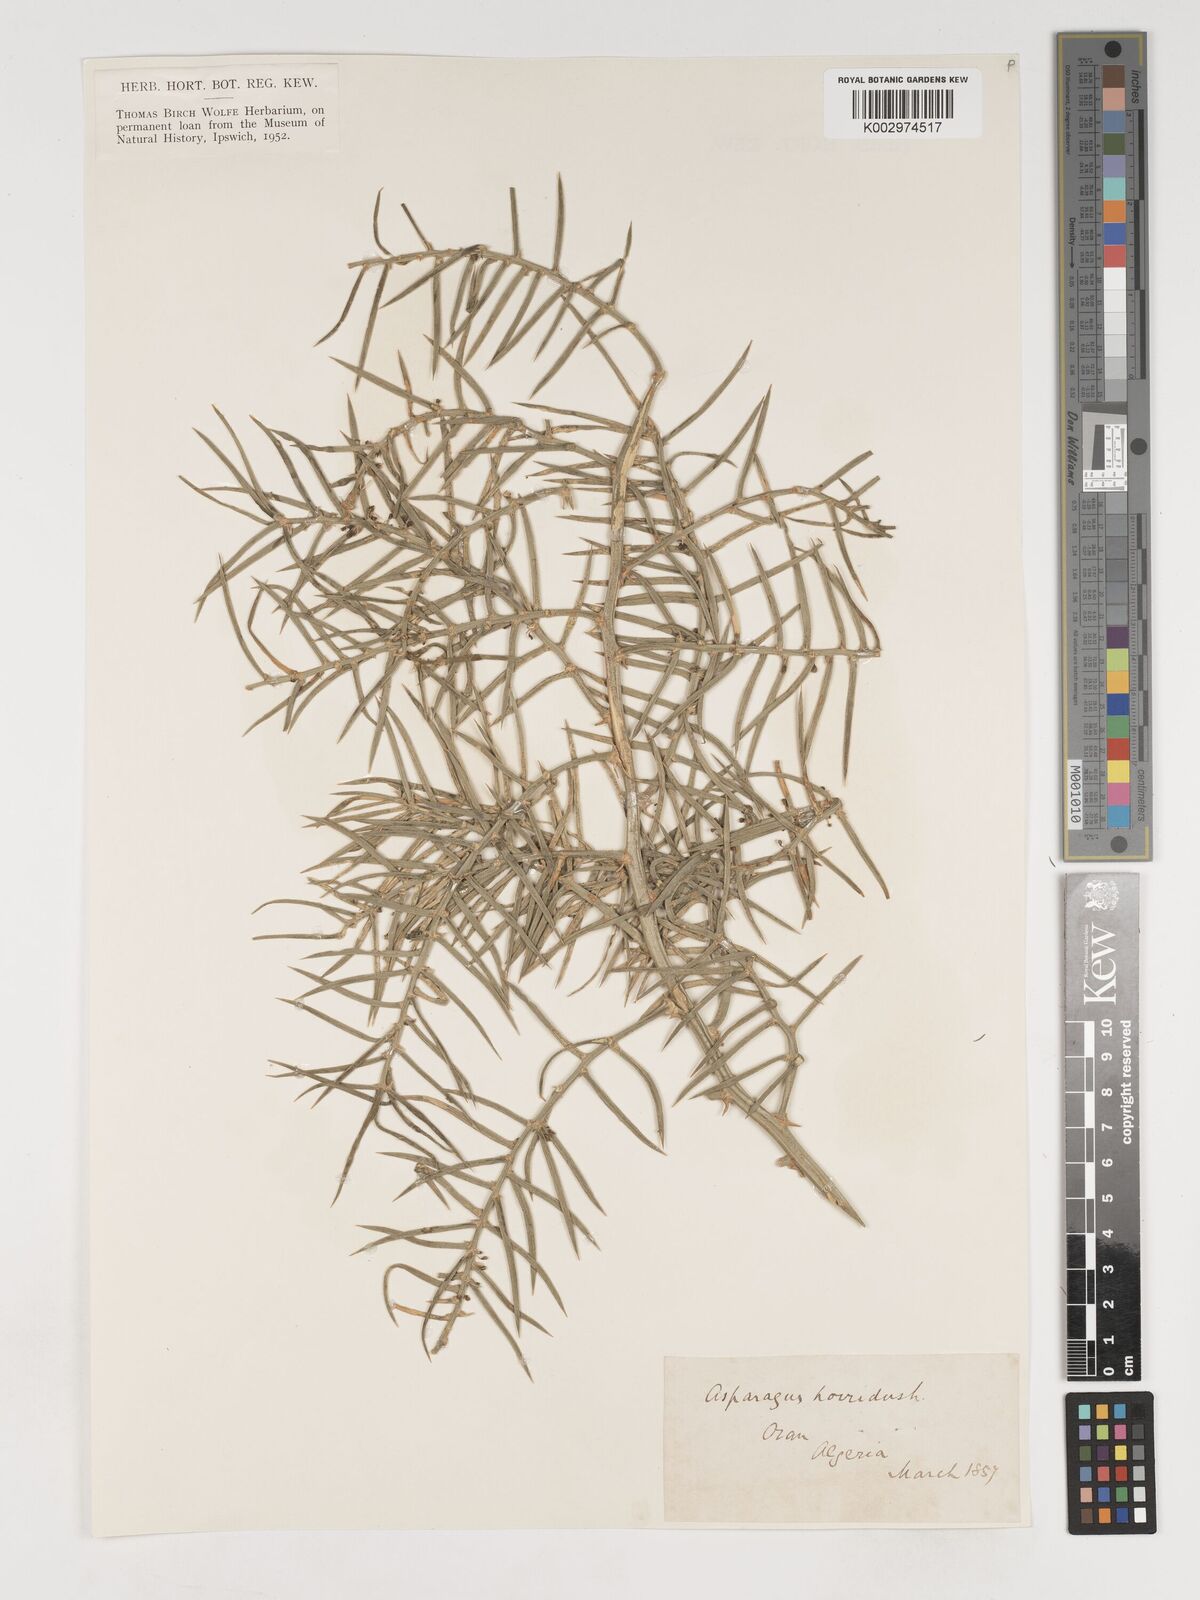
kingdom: Plantae
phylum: Tracheophyta
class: Liliopsida
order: Asparagales
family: Asparagaceae
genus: Asparagus
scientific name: Asparagus horridus
